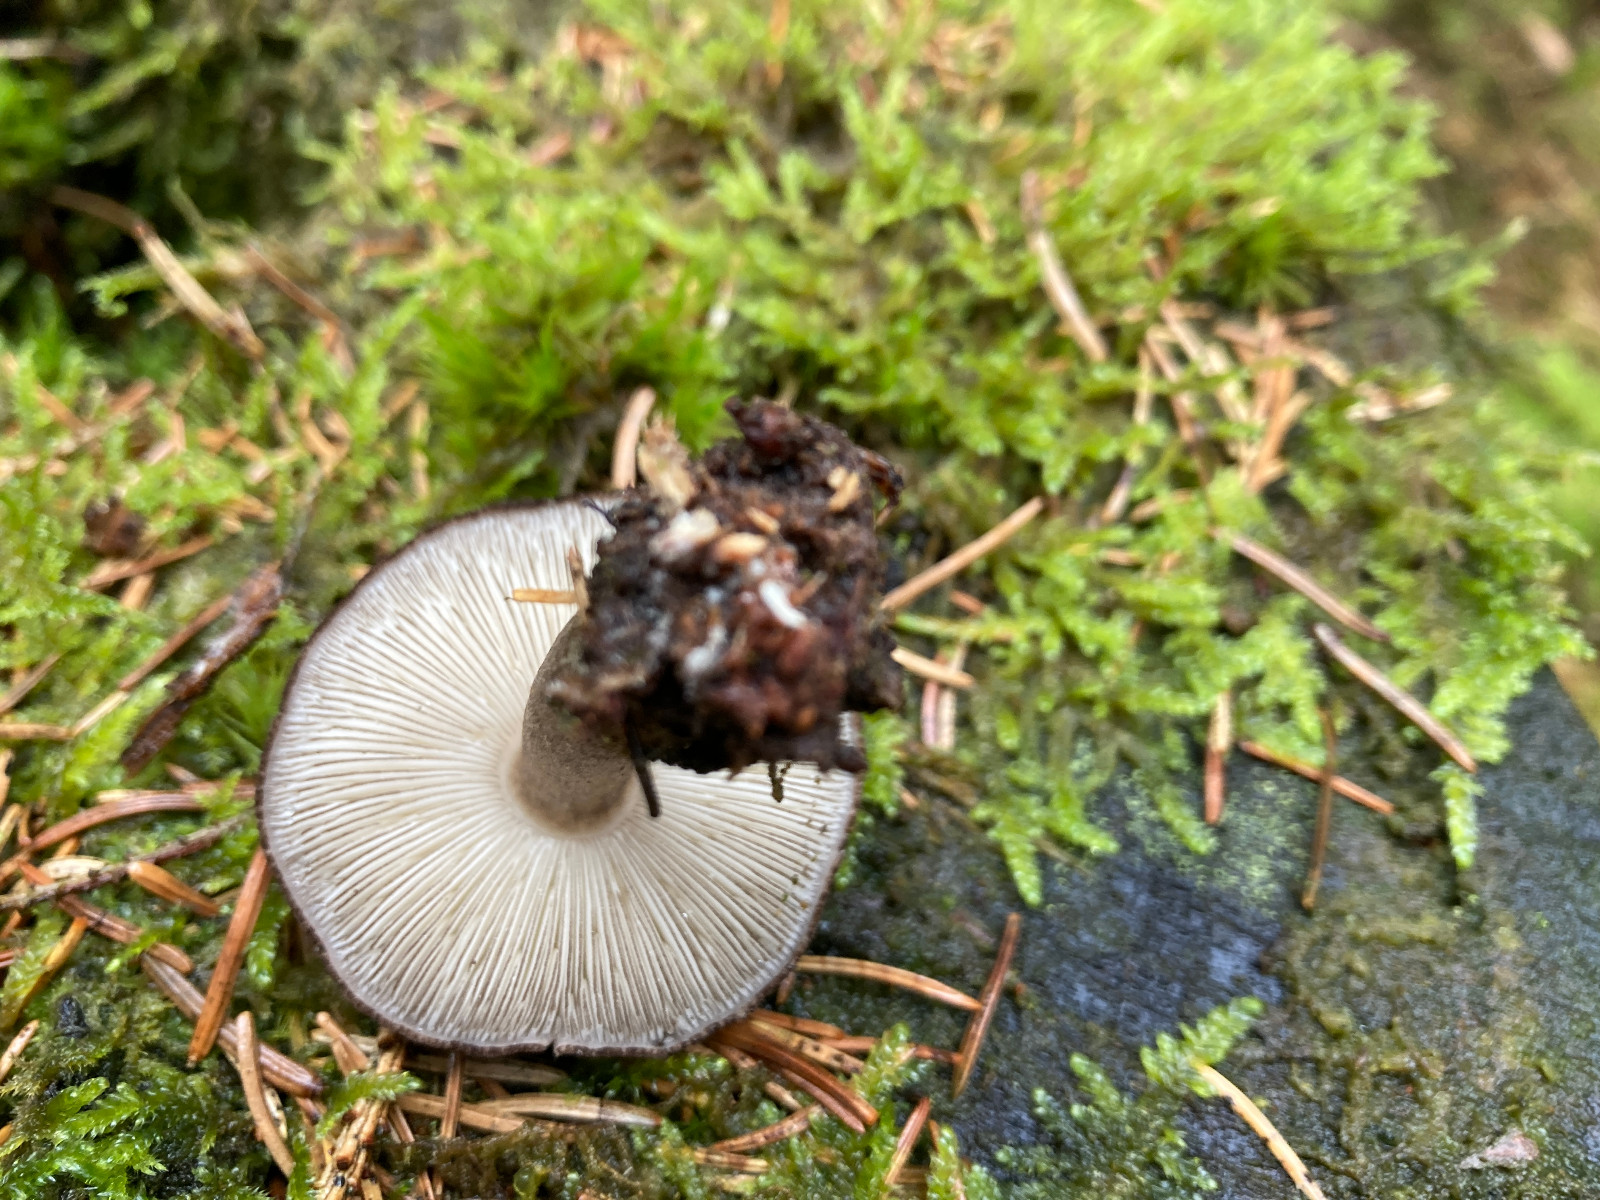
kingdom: Fungi
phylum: Basidiomycota
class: Agaricomycetes
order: Agaricales
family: Pluteaceae
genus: Pluteus
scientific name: Pluteus atromarginatus
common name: sortrandet skærmhat
